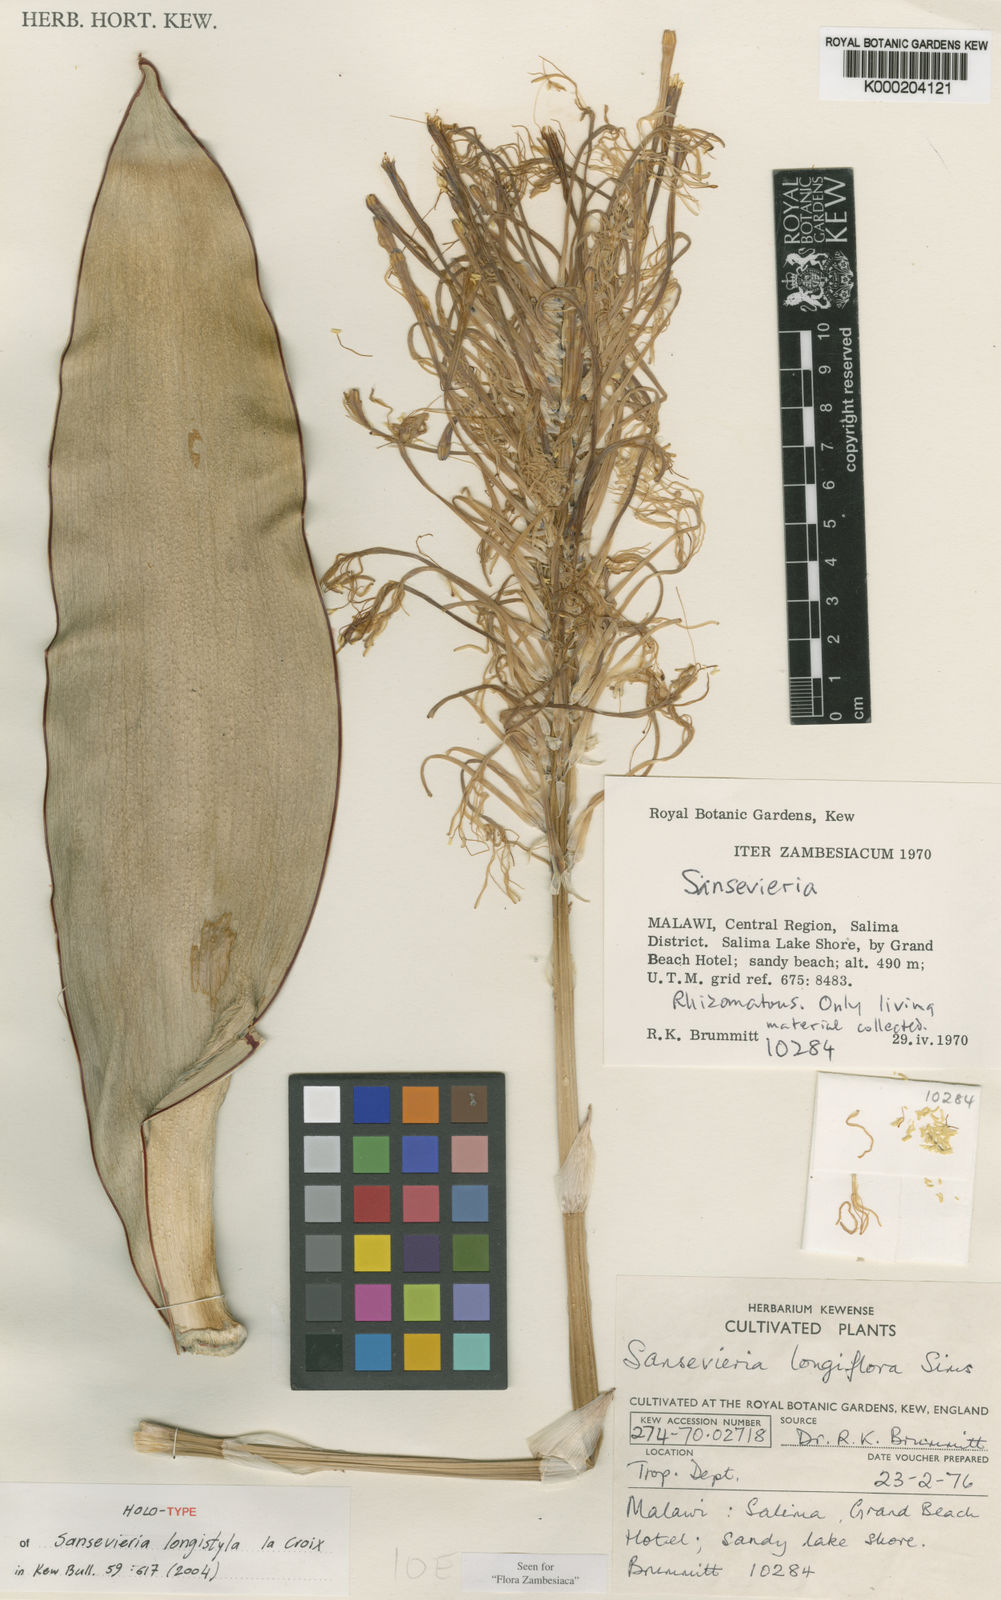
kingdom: Plantae
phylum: Tracheophyta
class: Liliopsida
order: Asparagales
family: Asparagaceae
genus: Dracaena
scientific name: Dracaena longistyla
